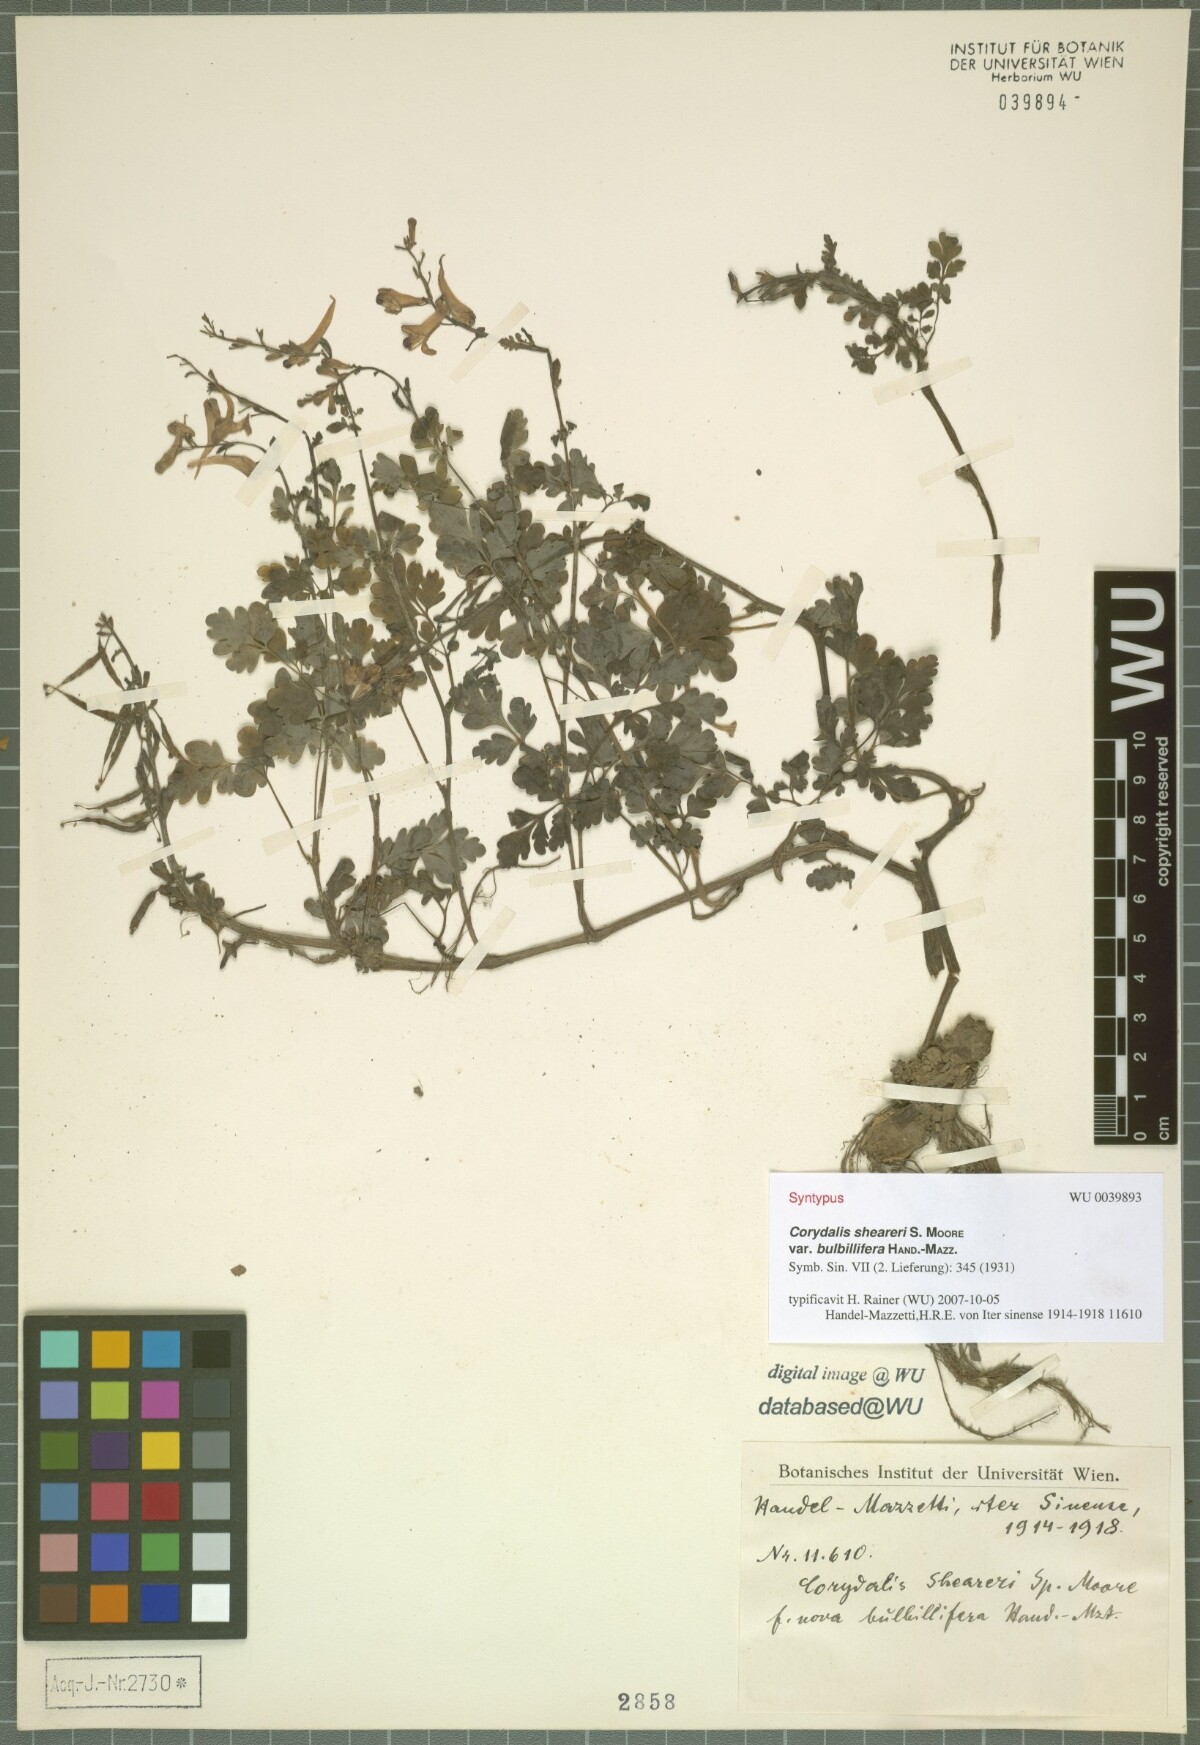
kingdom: Plantae
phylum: Tracheophyta
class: Magnoliopsida
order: Ranunculales
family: Papaveraceae
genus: Corydalis
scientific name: Corydalis sheareri
